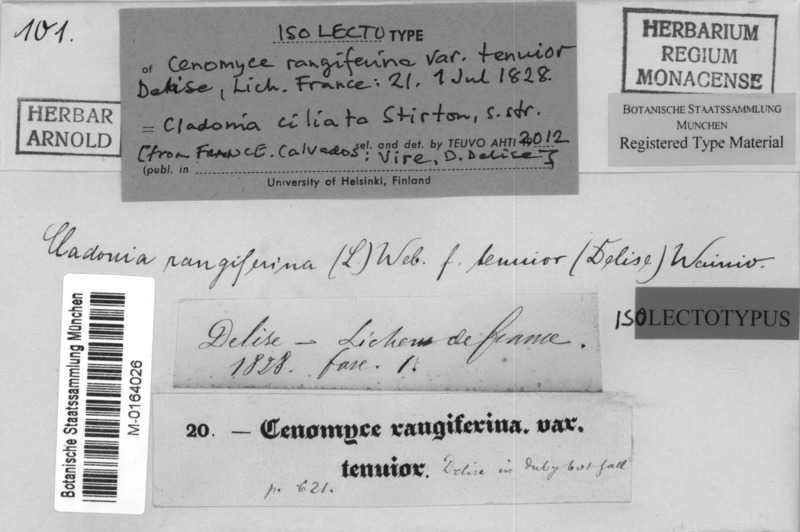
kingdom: Fungi
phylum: Ascomycota
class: Lecanoromycetes
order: Lecanorales
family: Cladoniaceae
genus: Cladonia
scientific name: Cladonia ciliata
